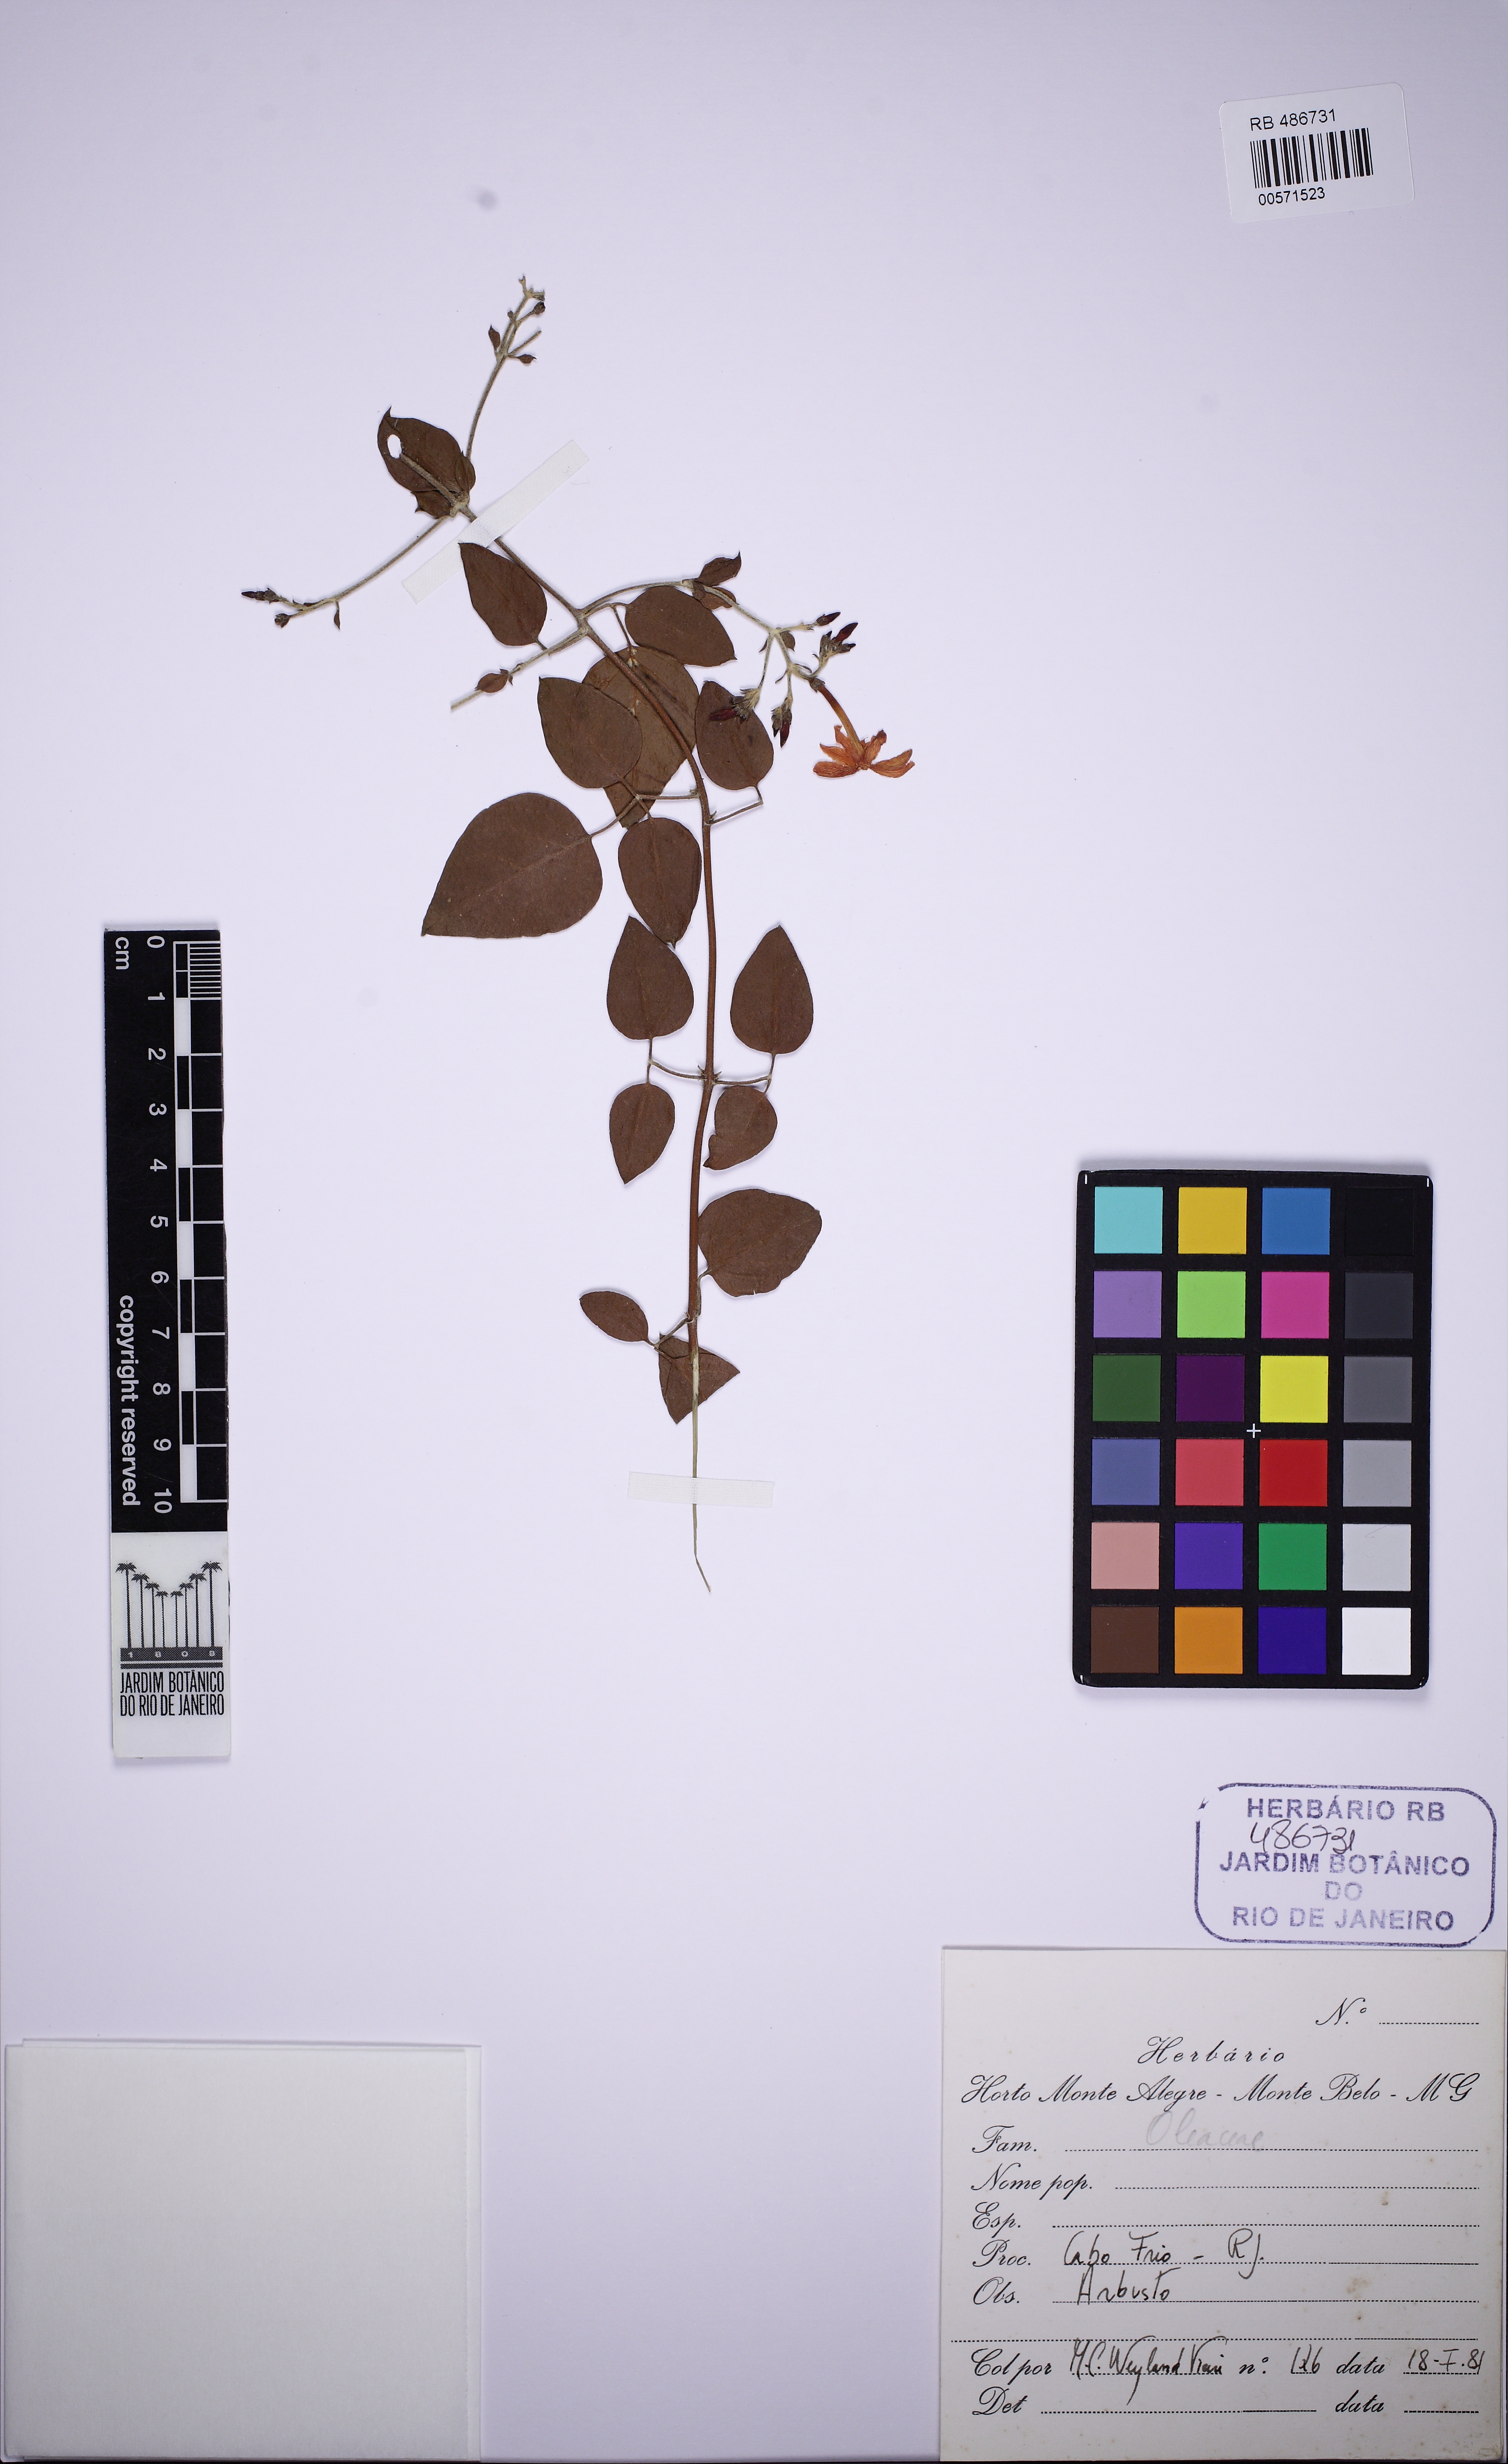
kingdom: Plantae
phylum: Tracheophyta
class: Magnoliopsida
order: Lamiales
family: Oleaceae
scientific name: Oleaceae
